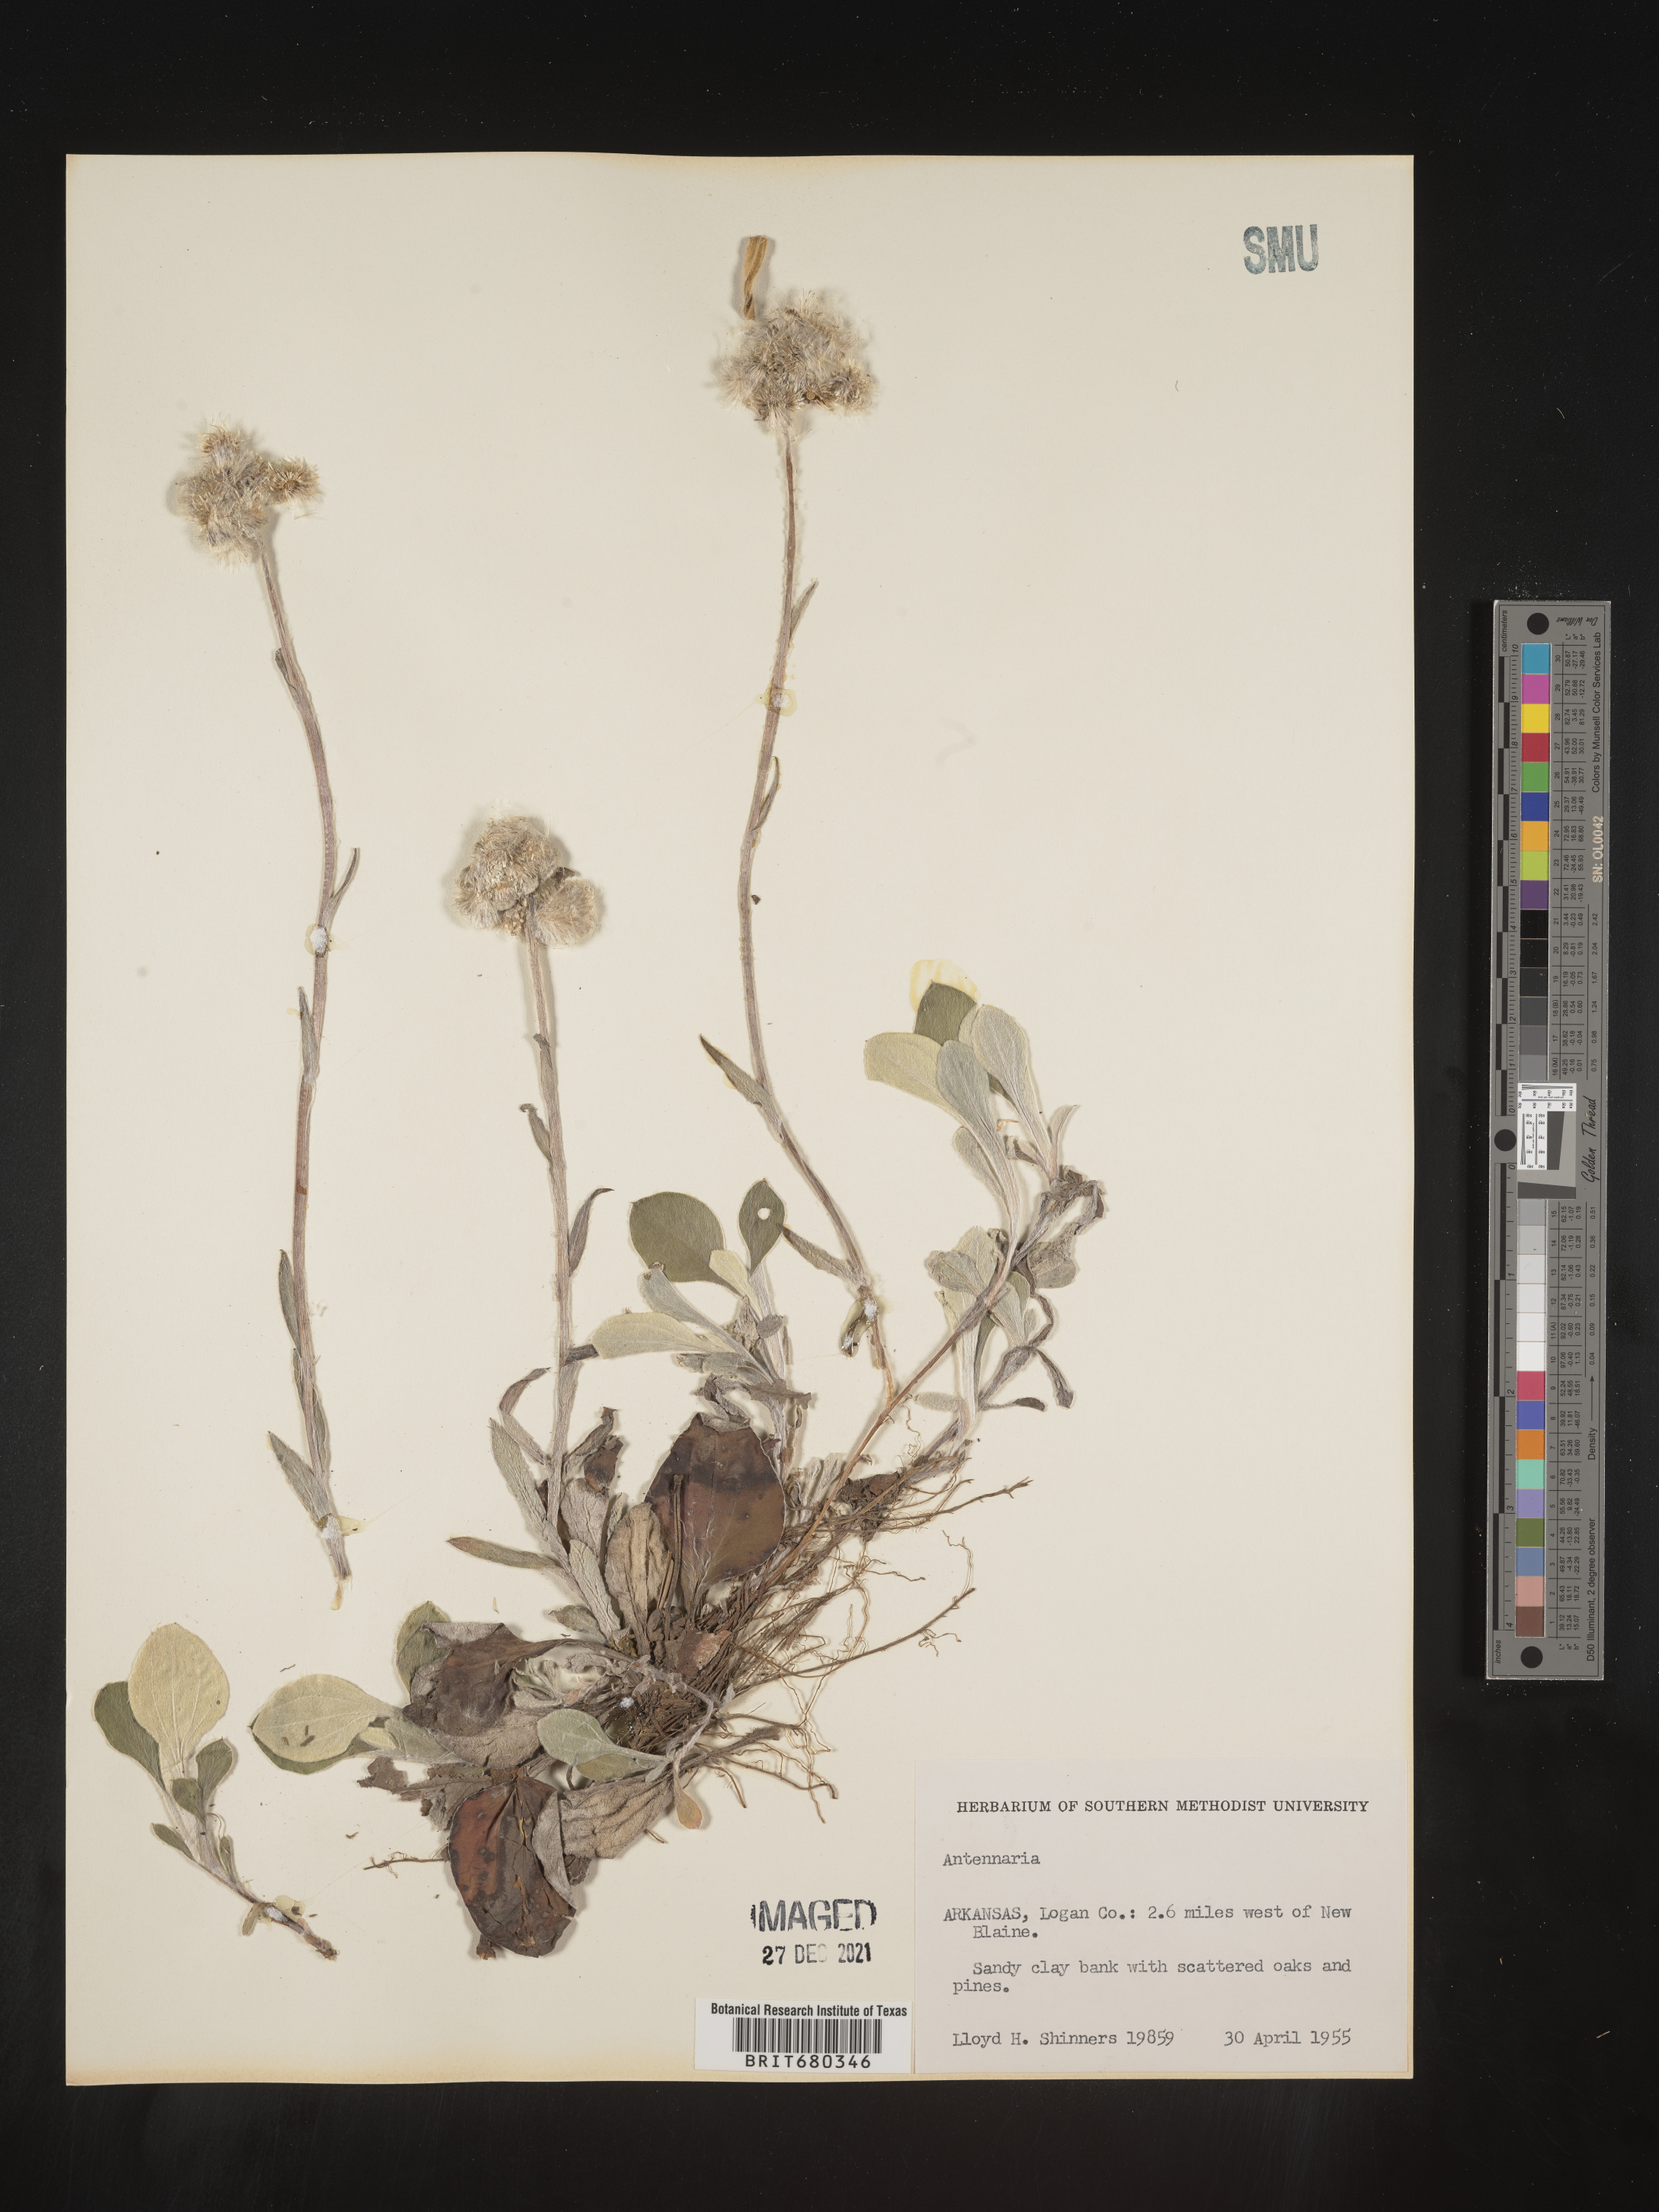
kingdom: Plantae
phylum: Tracheophyta
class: Magnoliopsida
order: Asterales
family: Asteraceae
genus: Antennaria
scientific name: Antennaria
